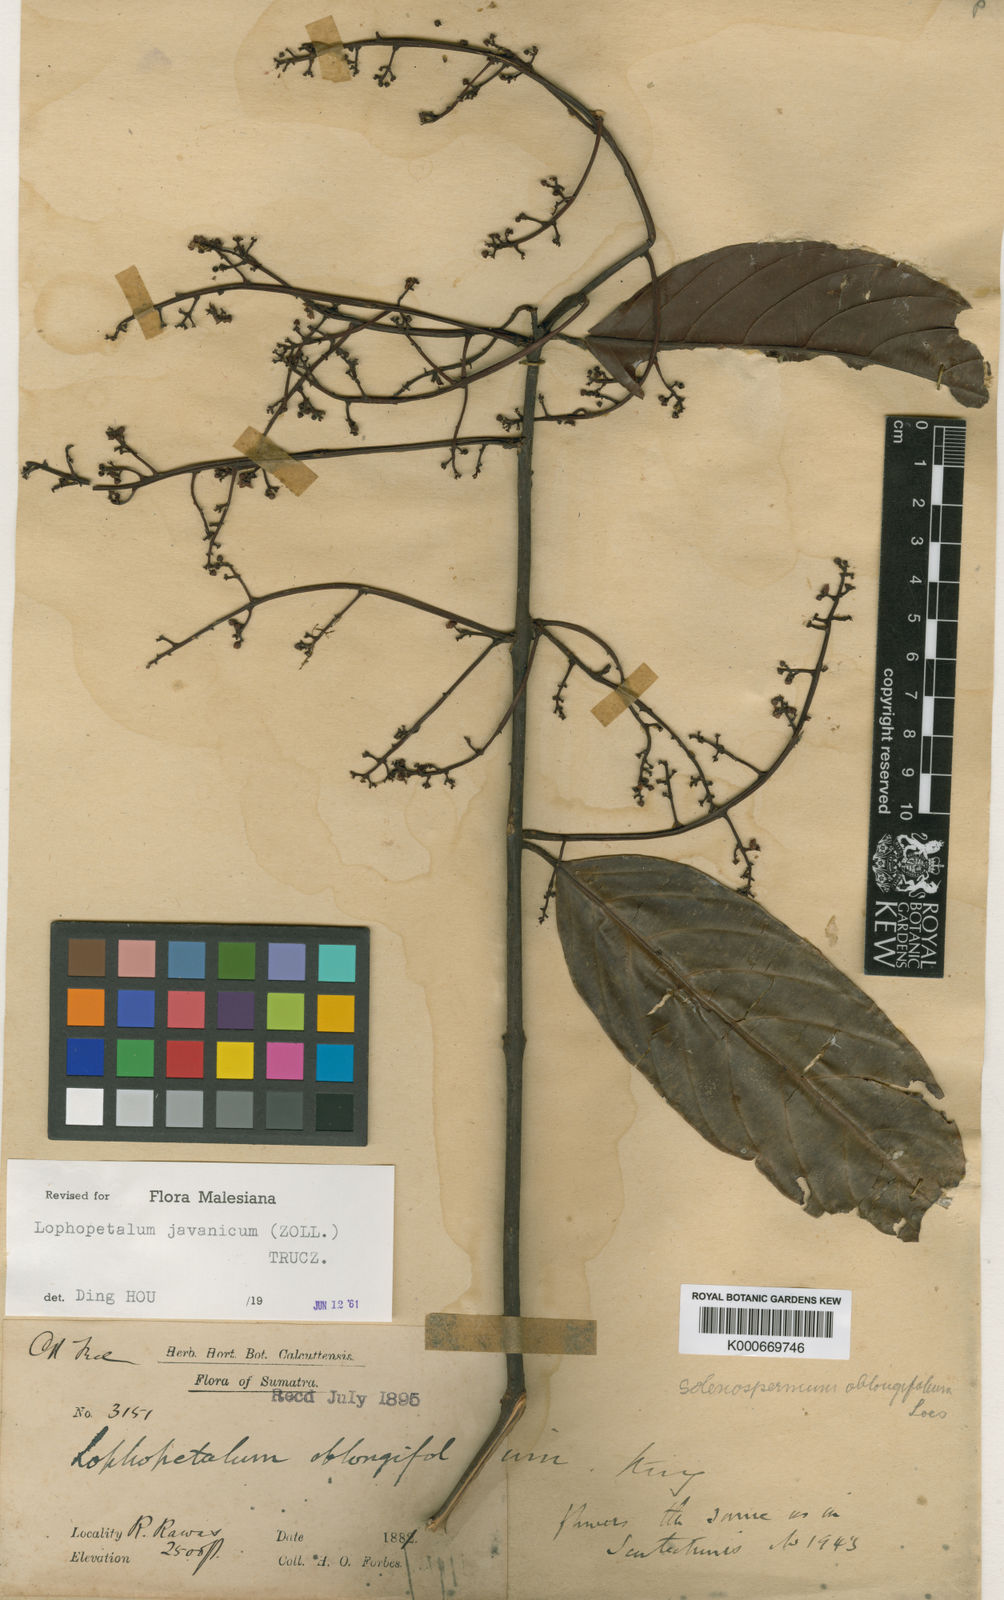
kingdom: Plantae
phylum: Tracheophyta
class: Magnoliopsida
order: Celastrales
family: Celastraceae
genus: Lophopetalum
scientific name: Lophopetalum
